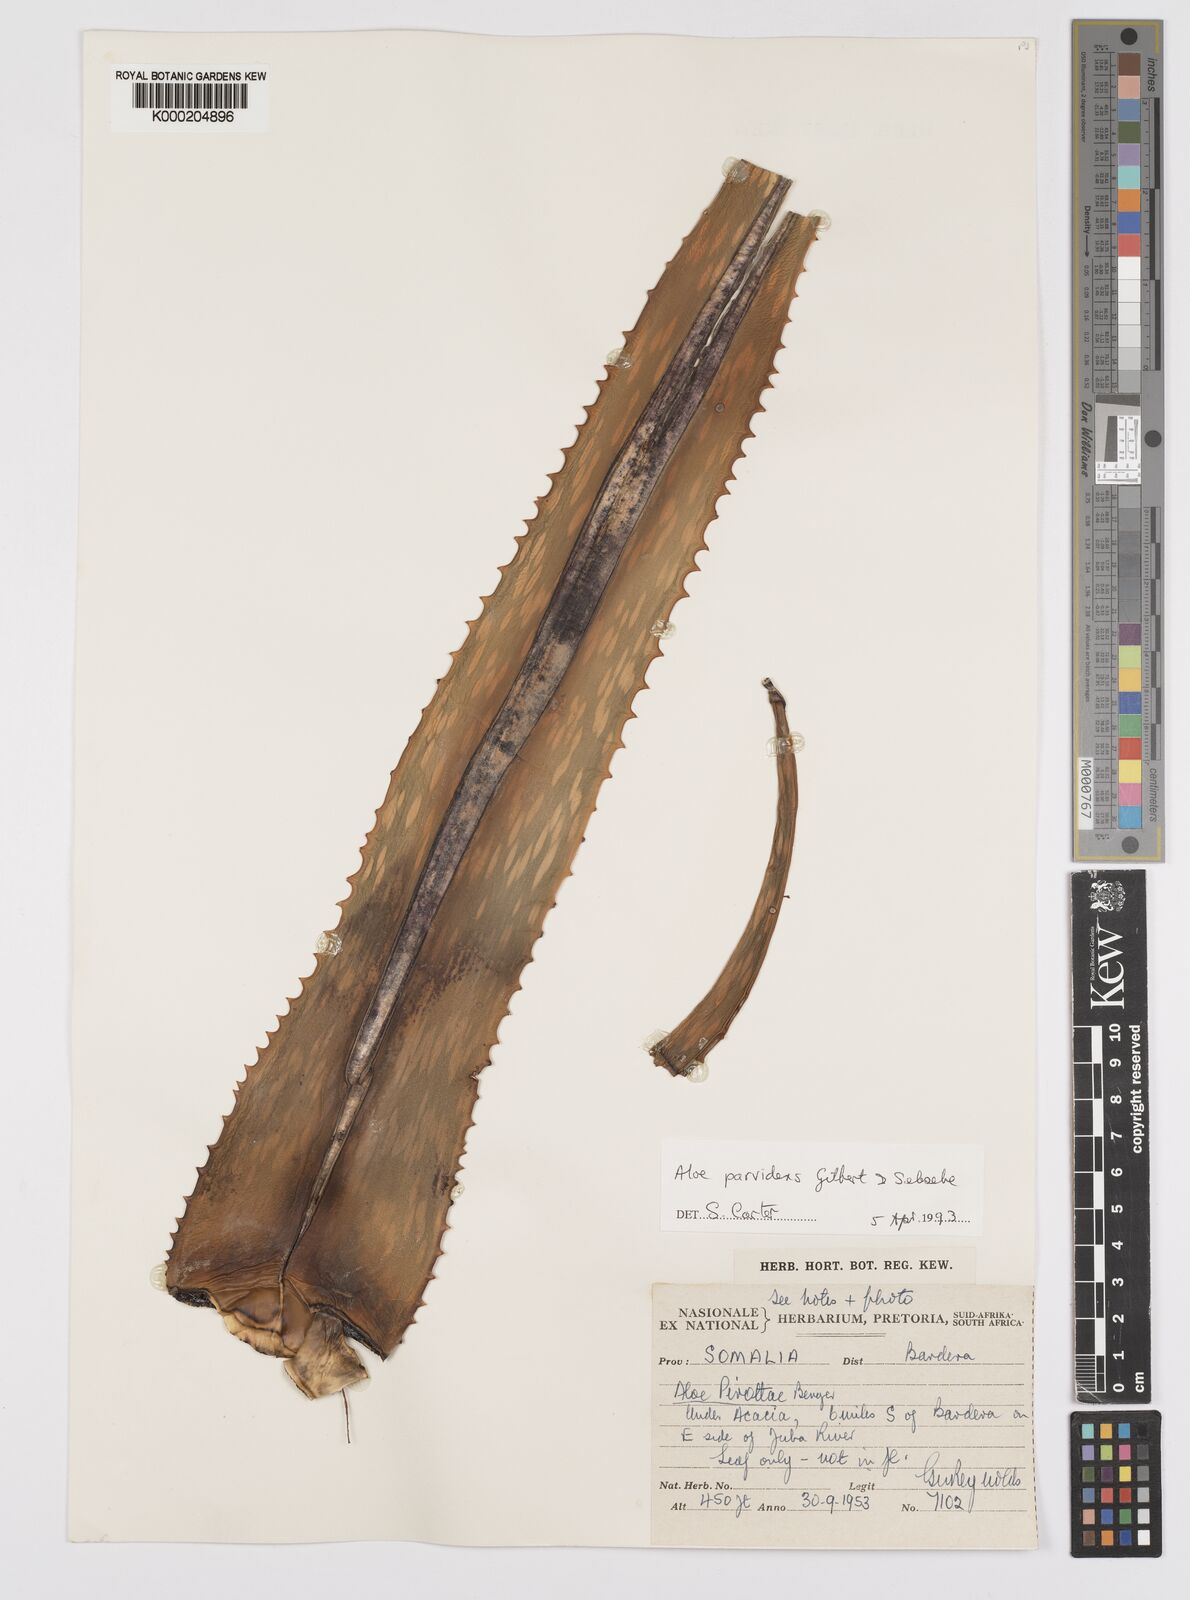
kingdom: Plantae
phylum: Tracheophyta
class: Liliopsida
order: Asparagales
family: Asphodelaceae
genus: Aloe
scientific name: Aloe parvidens
